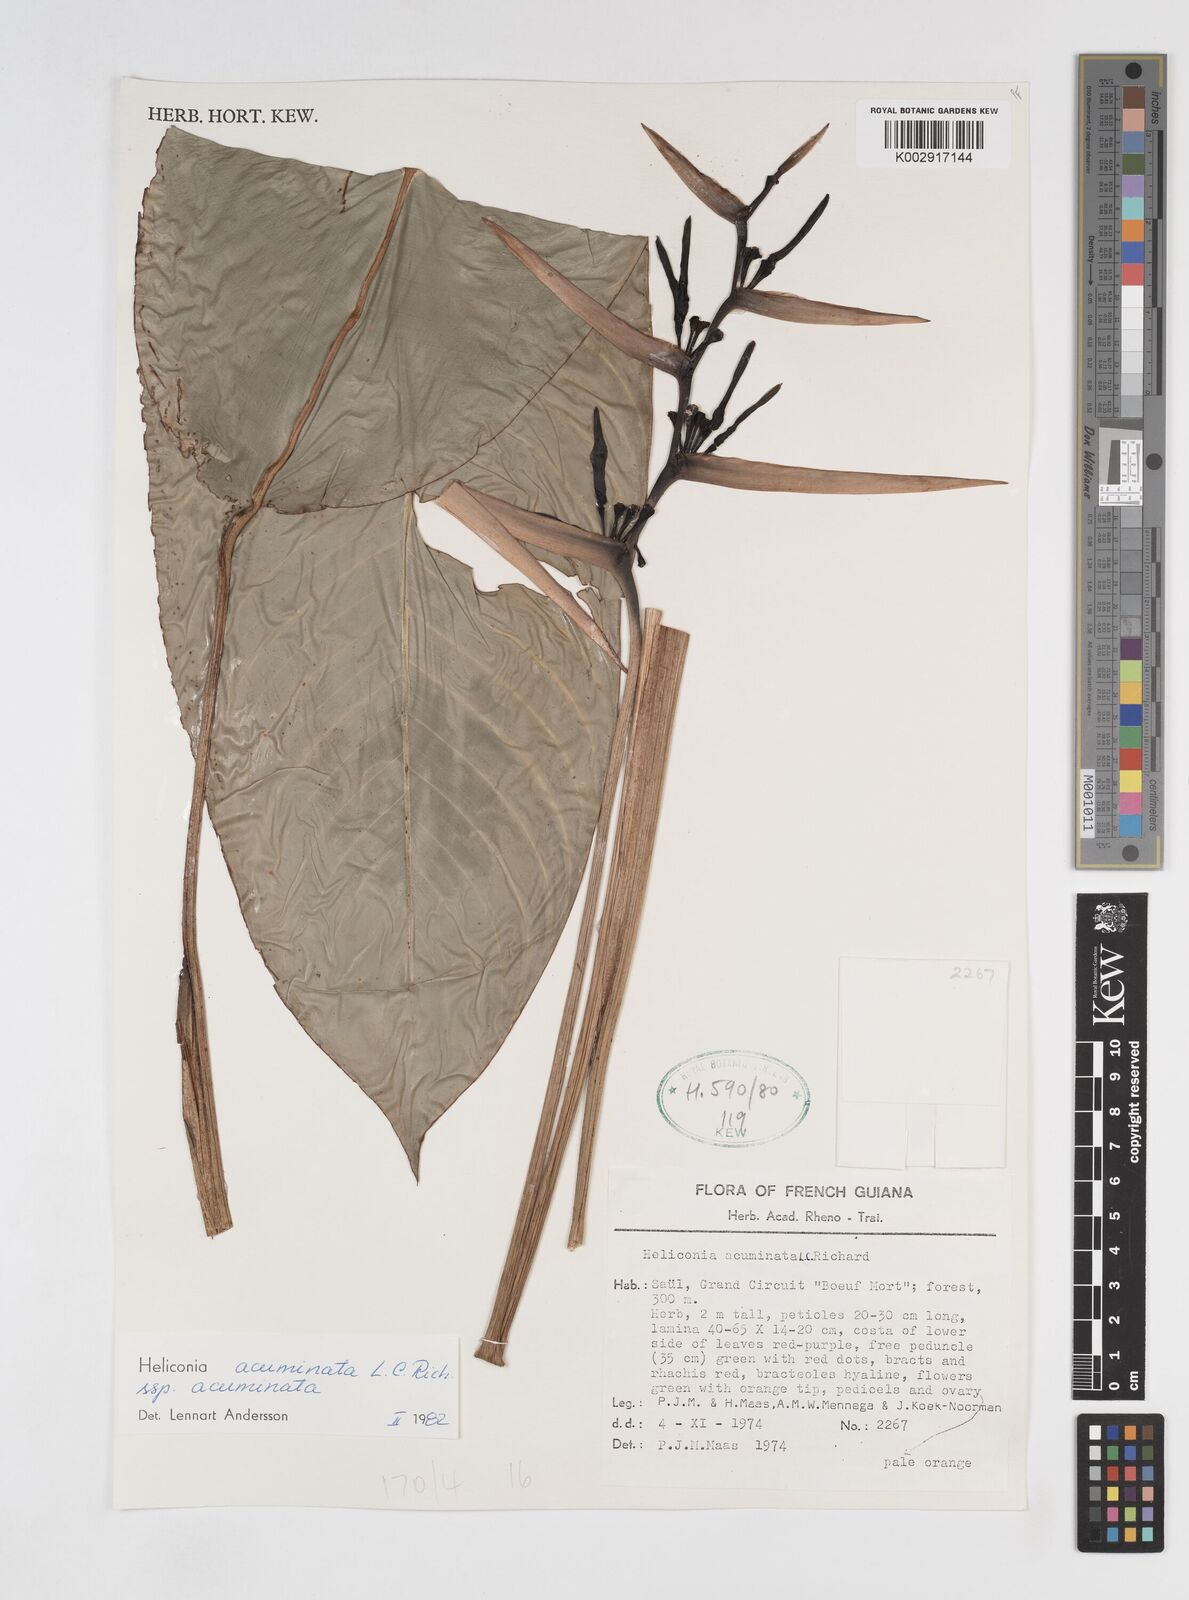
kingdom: Plantae
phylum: Tracheophyta
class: Liliopsida
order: Zingiberales
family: Heliconiaceae
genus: Heliconia
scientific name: Heliconia acuminata
